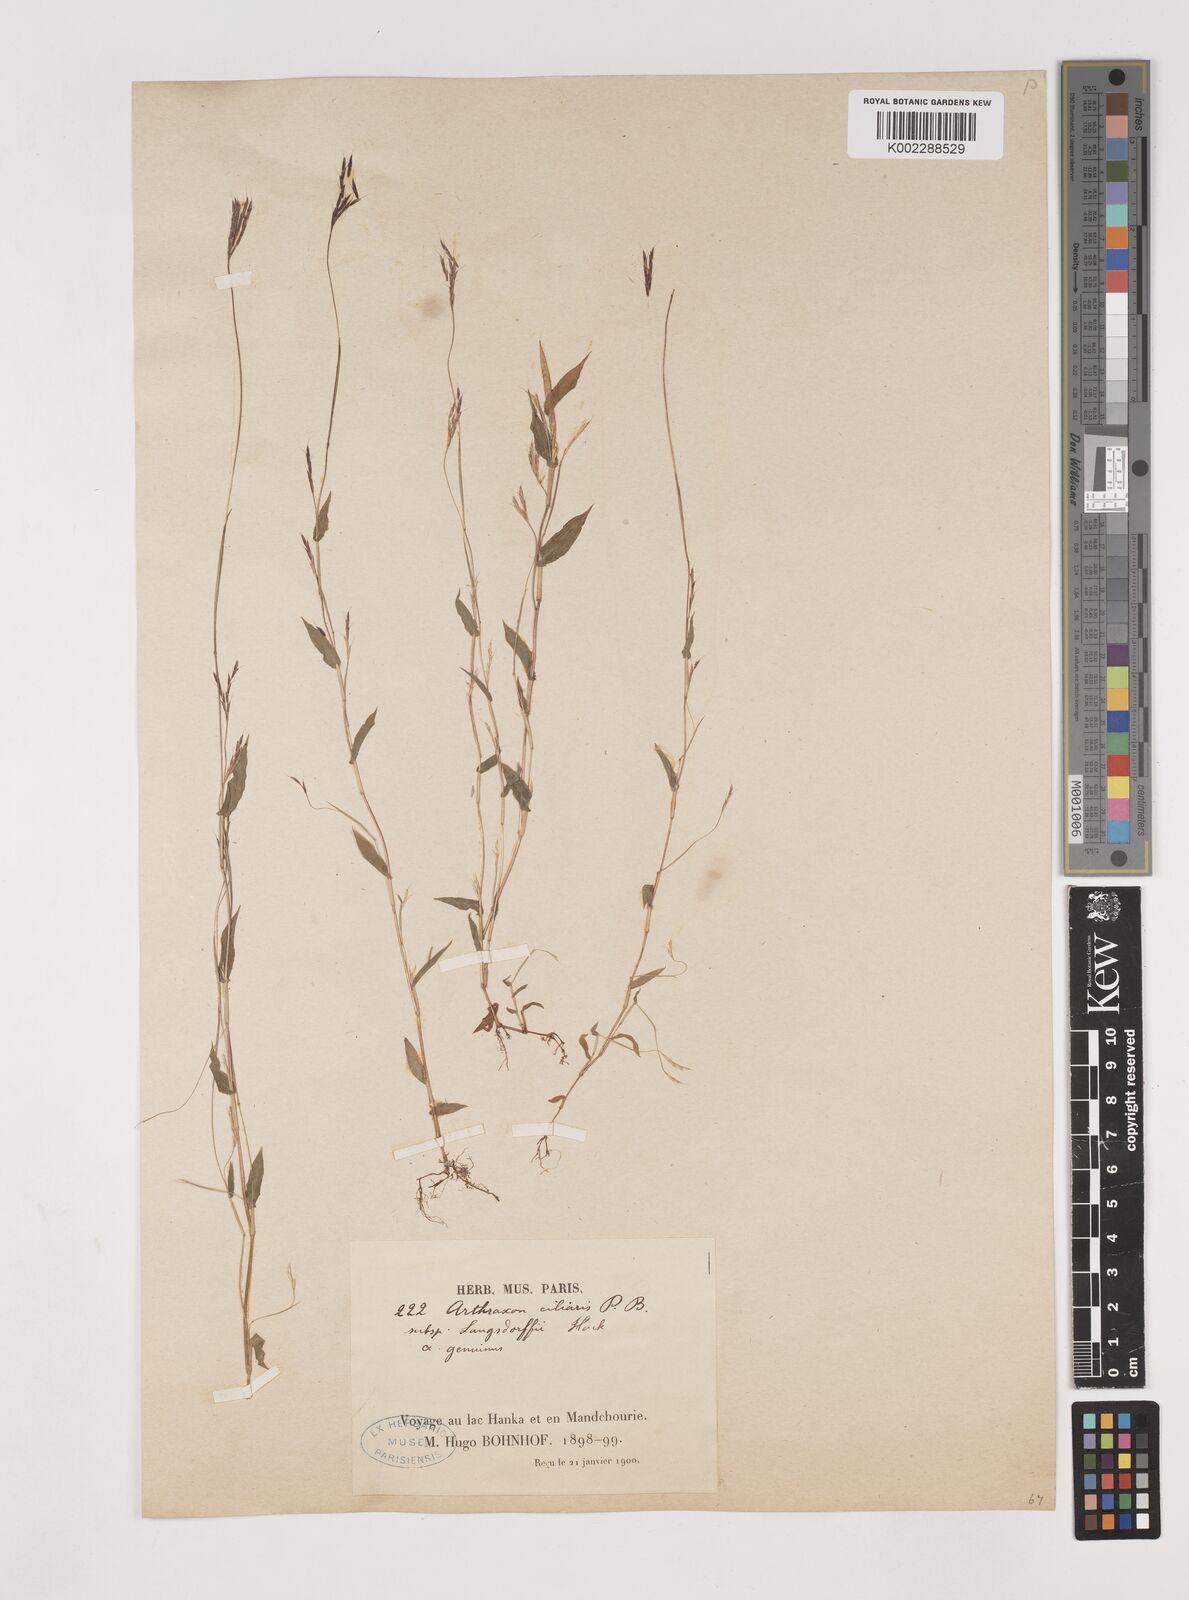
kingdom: Plantae
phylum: Tracheophyta
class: Liliopsida
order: Poales
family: Poaceae
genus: Arthraxon
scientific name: Arthraxon hispidus
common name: Small carpgrass
